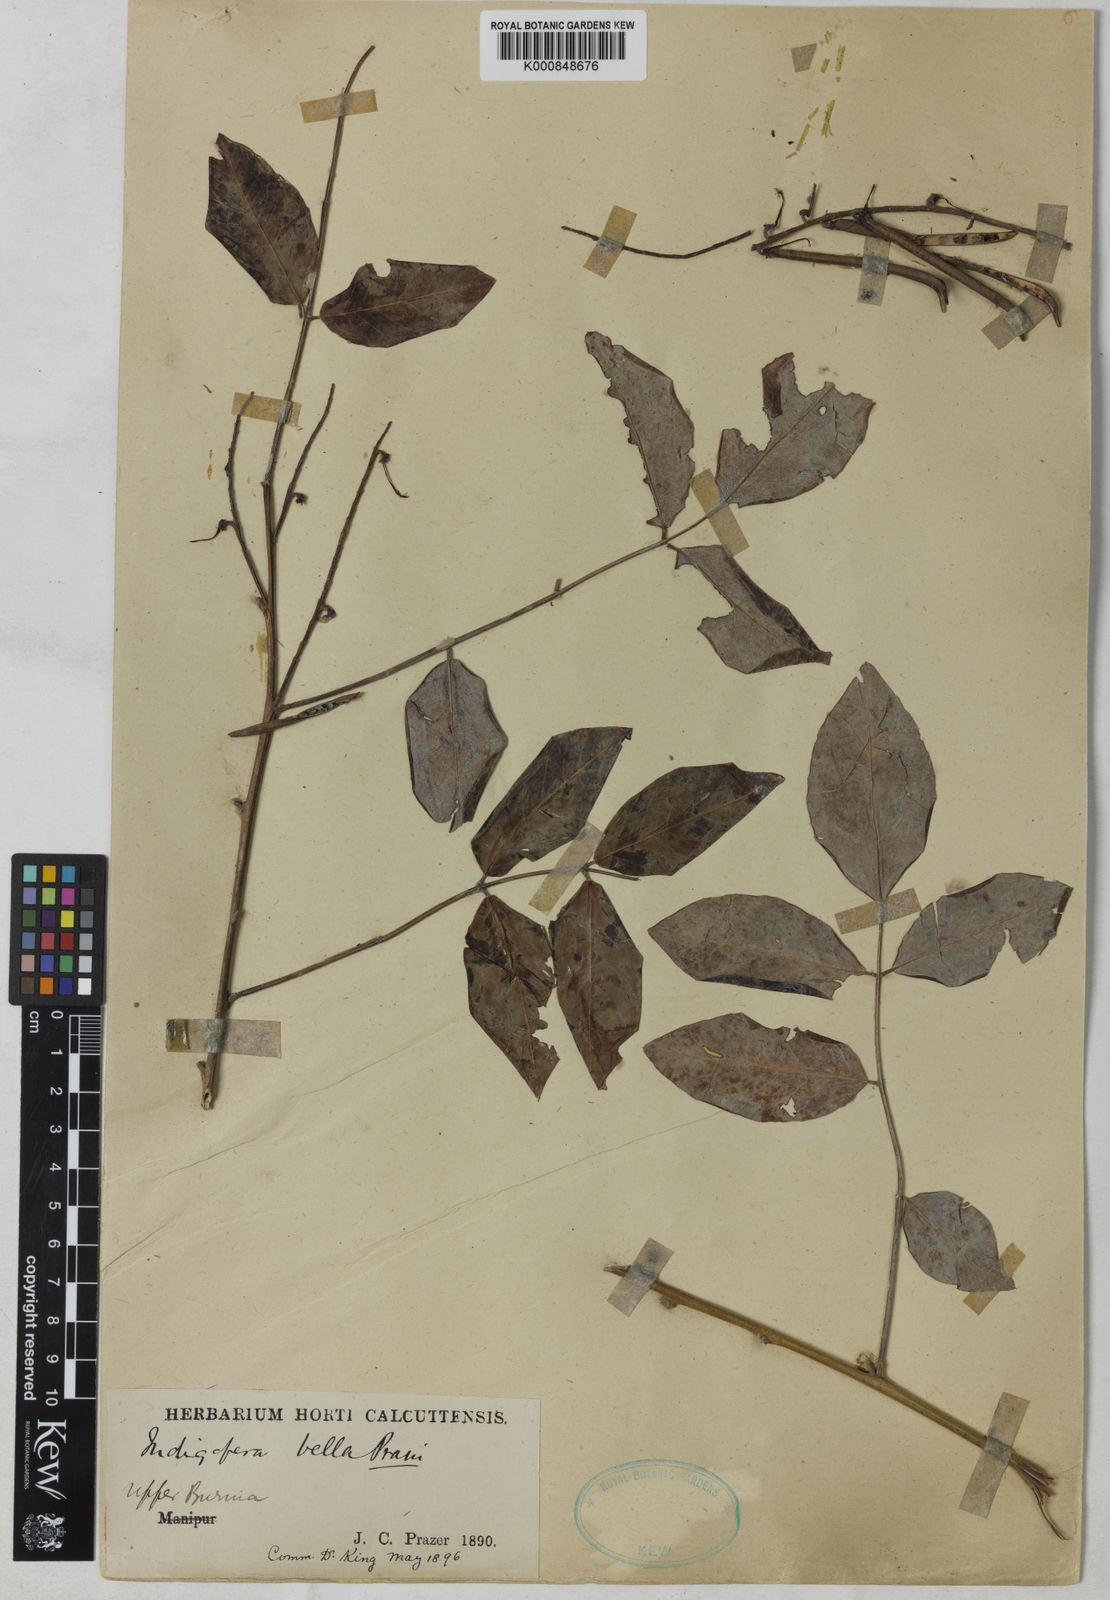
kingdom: Plantae
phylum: Tracheophyta
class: Magnoliopsida
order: Fabales
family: Fabaceae
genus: Indigofera
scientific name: Indigofera bella
